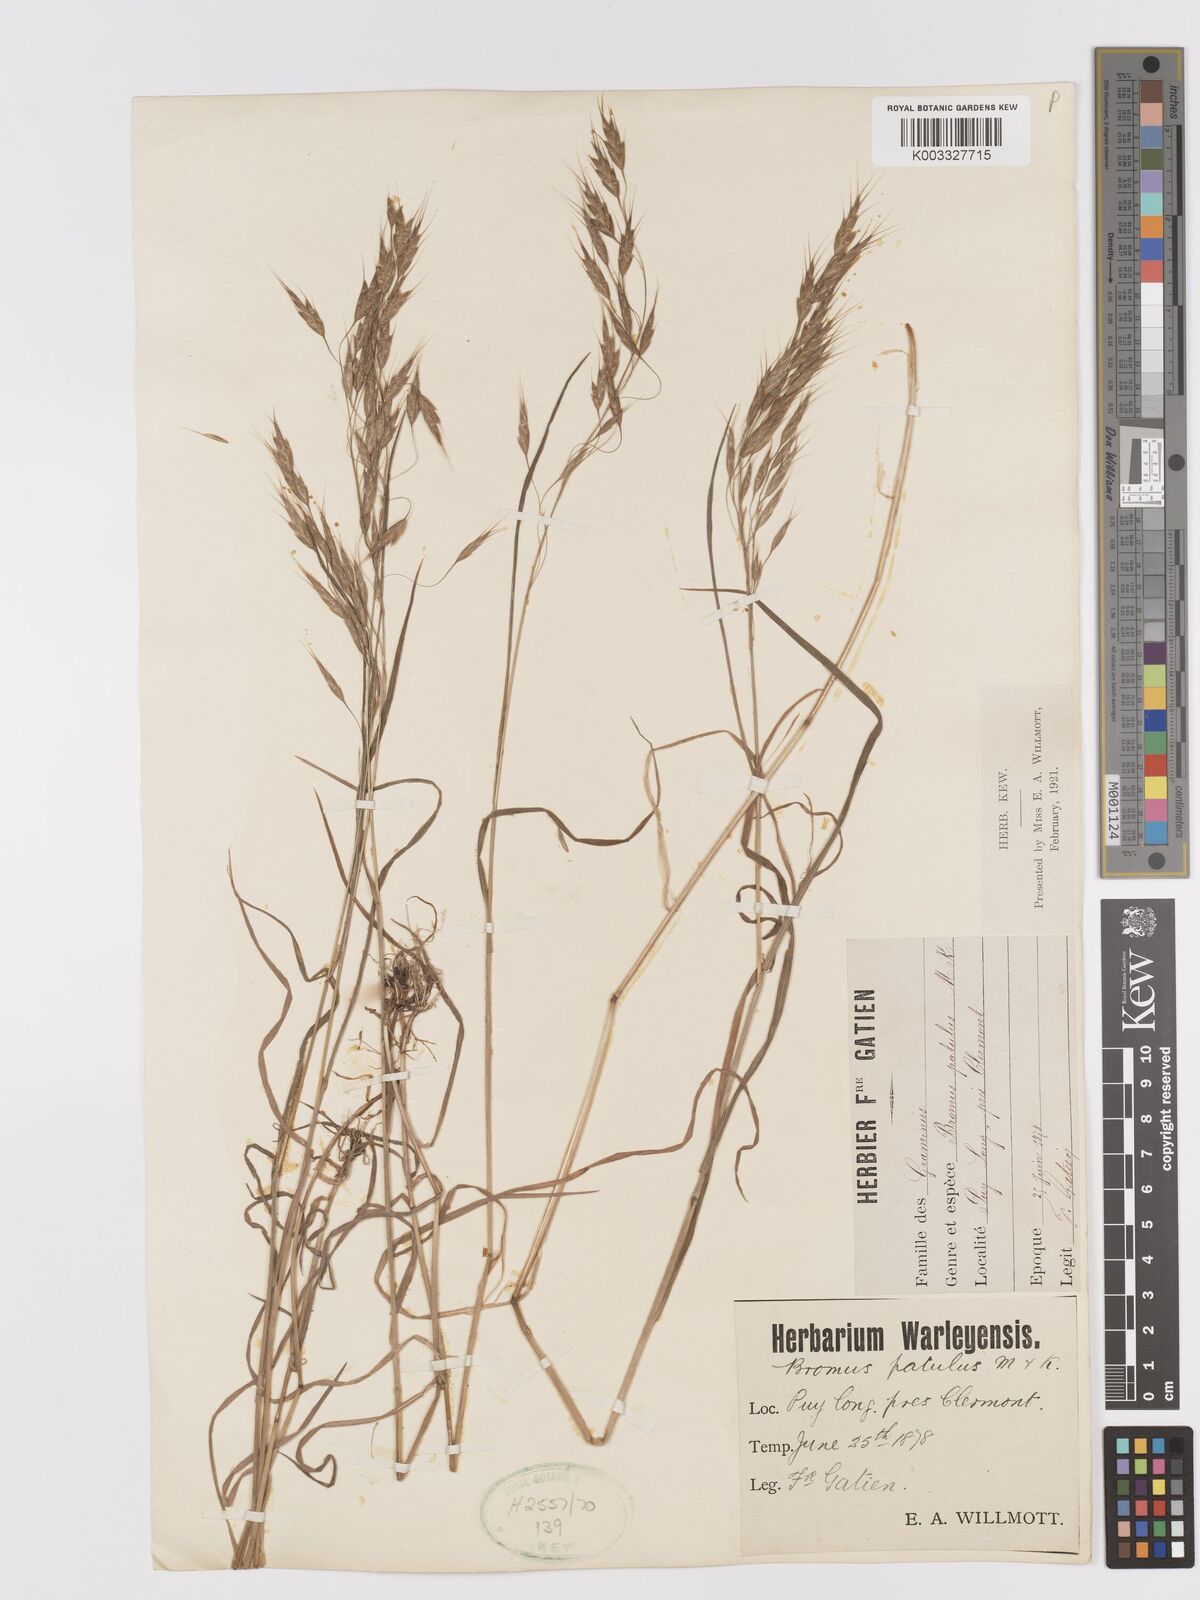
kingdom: Plantae
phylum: Tracheophyta
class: Liliopsida
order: Poales
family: Poaceae
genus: Bromus
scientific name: Bromus japonicus
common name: Japanese brome
